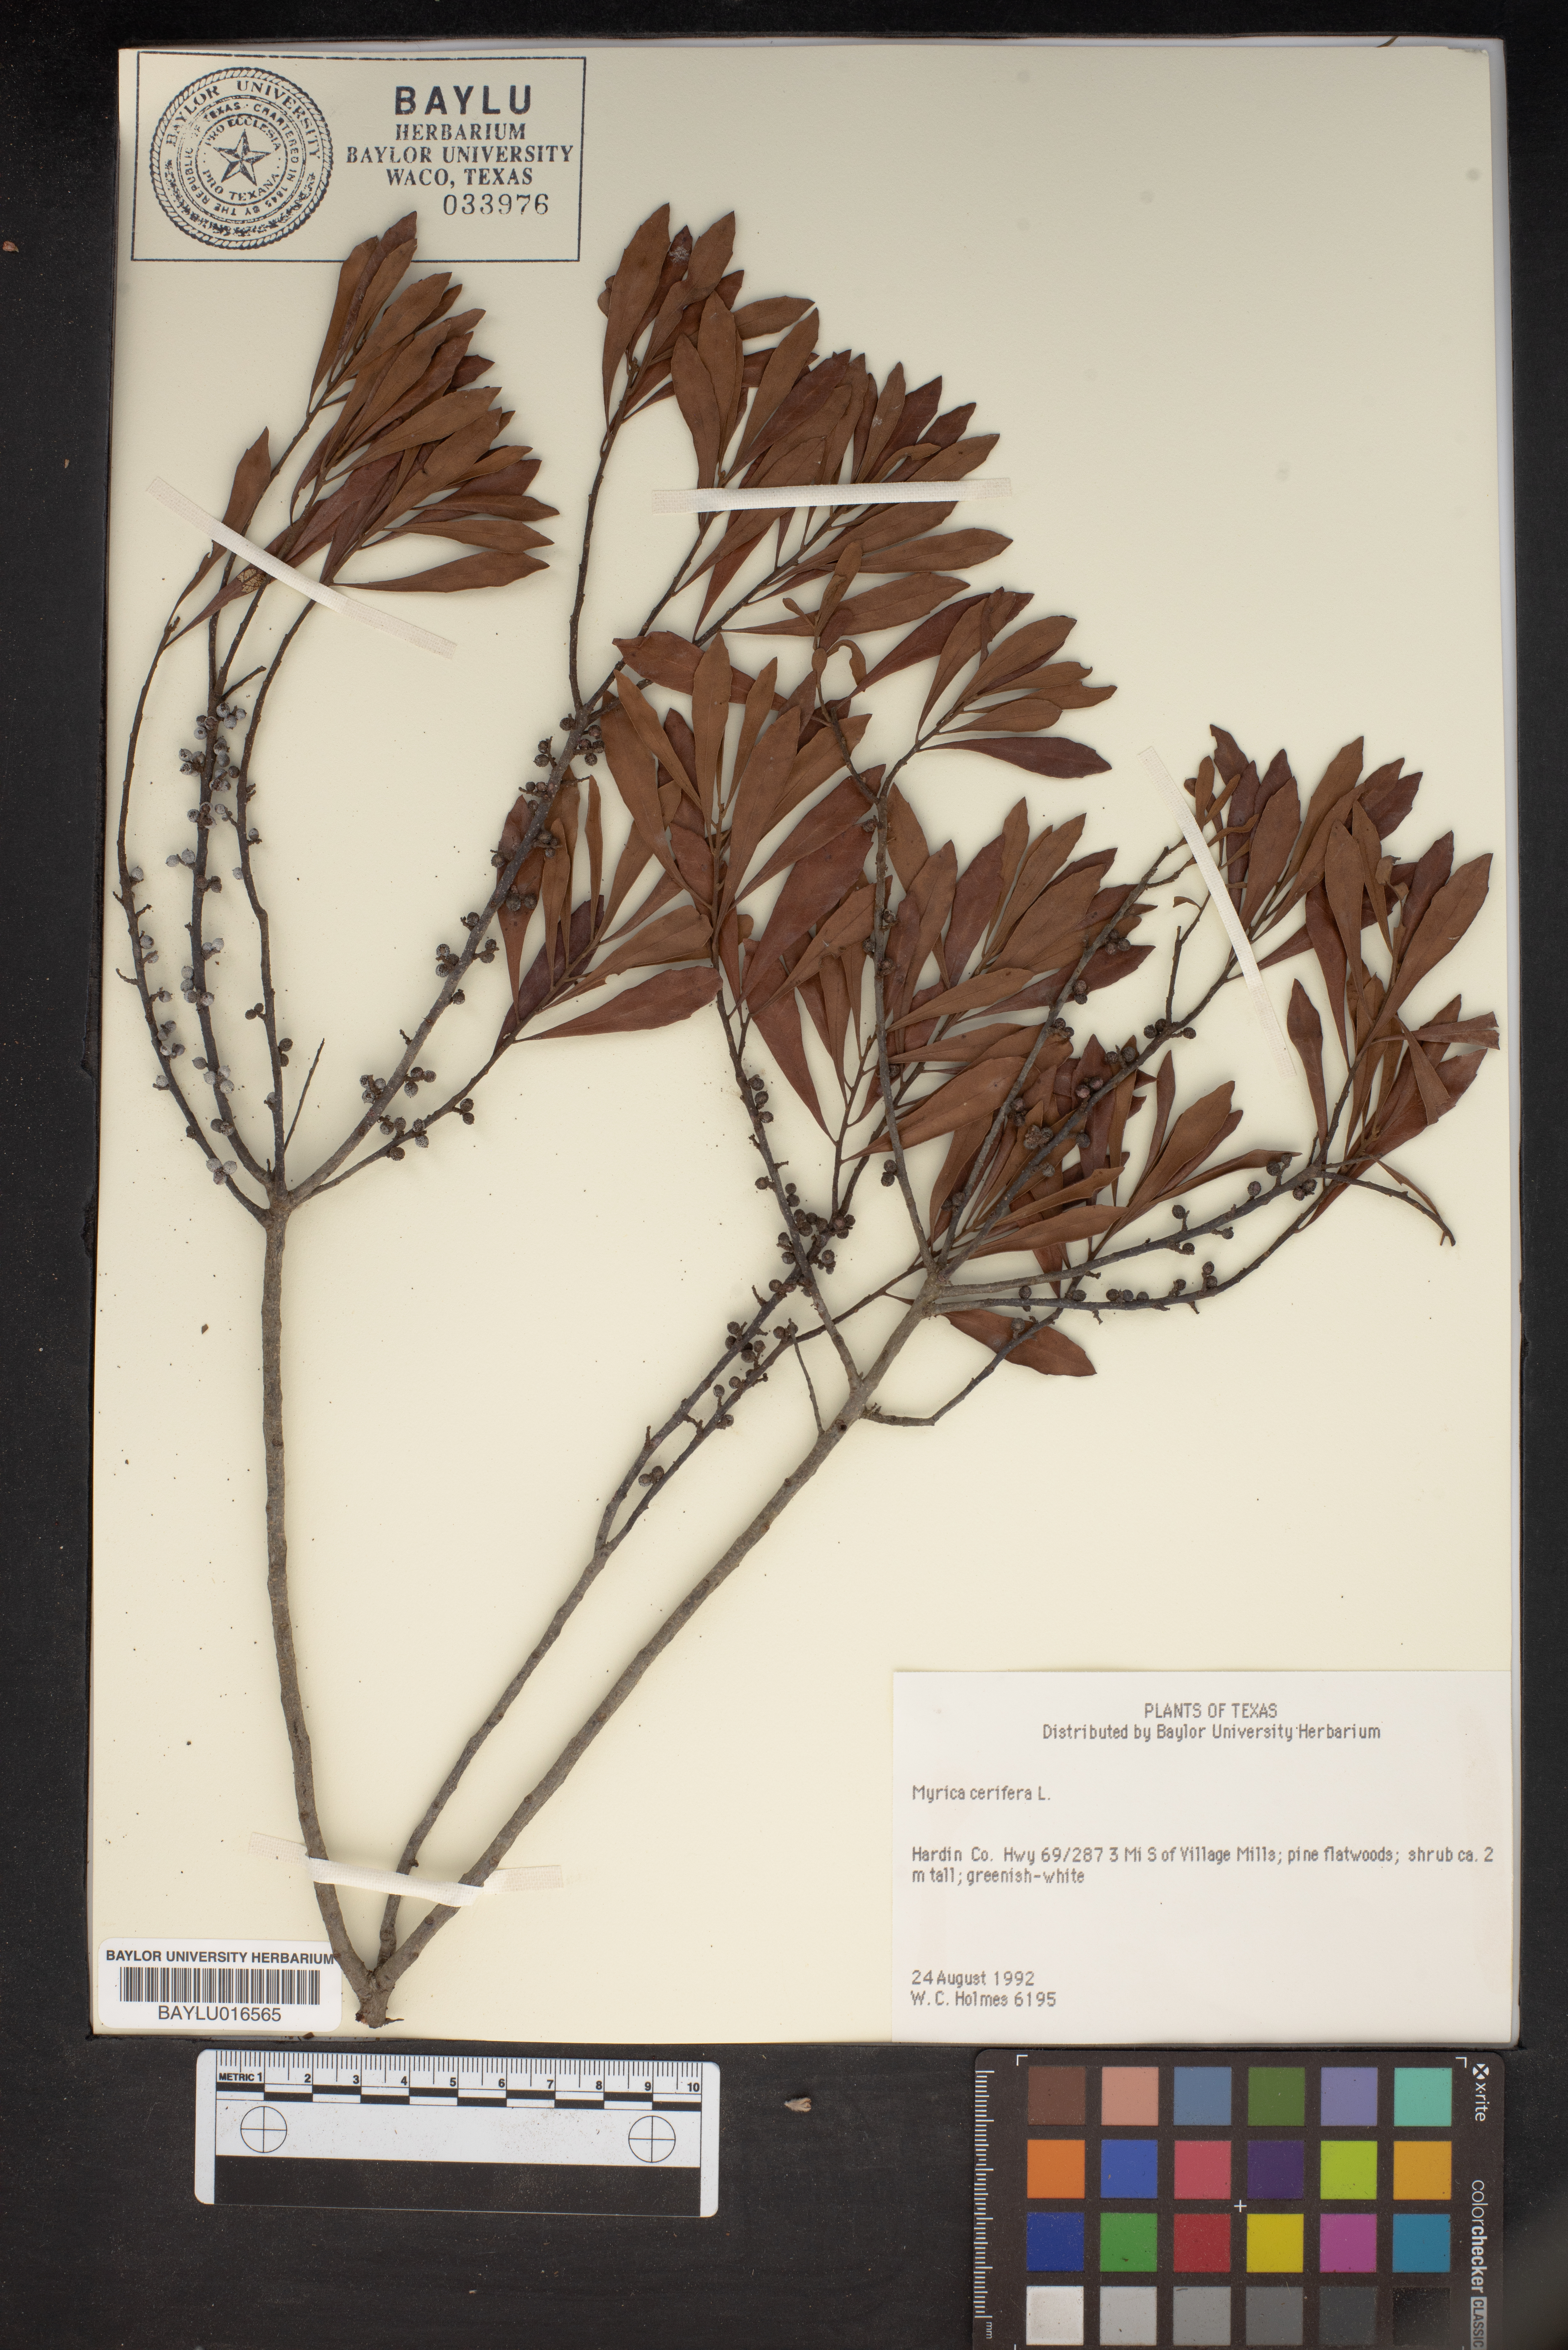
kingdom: Plantae
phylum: Tracheophyta
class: Magnoliopsida
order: Fagales
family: Myricaceae
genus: Morella
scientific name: Morella cerifera
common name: Wax myrtle
